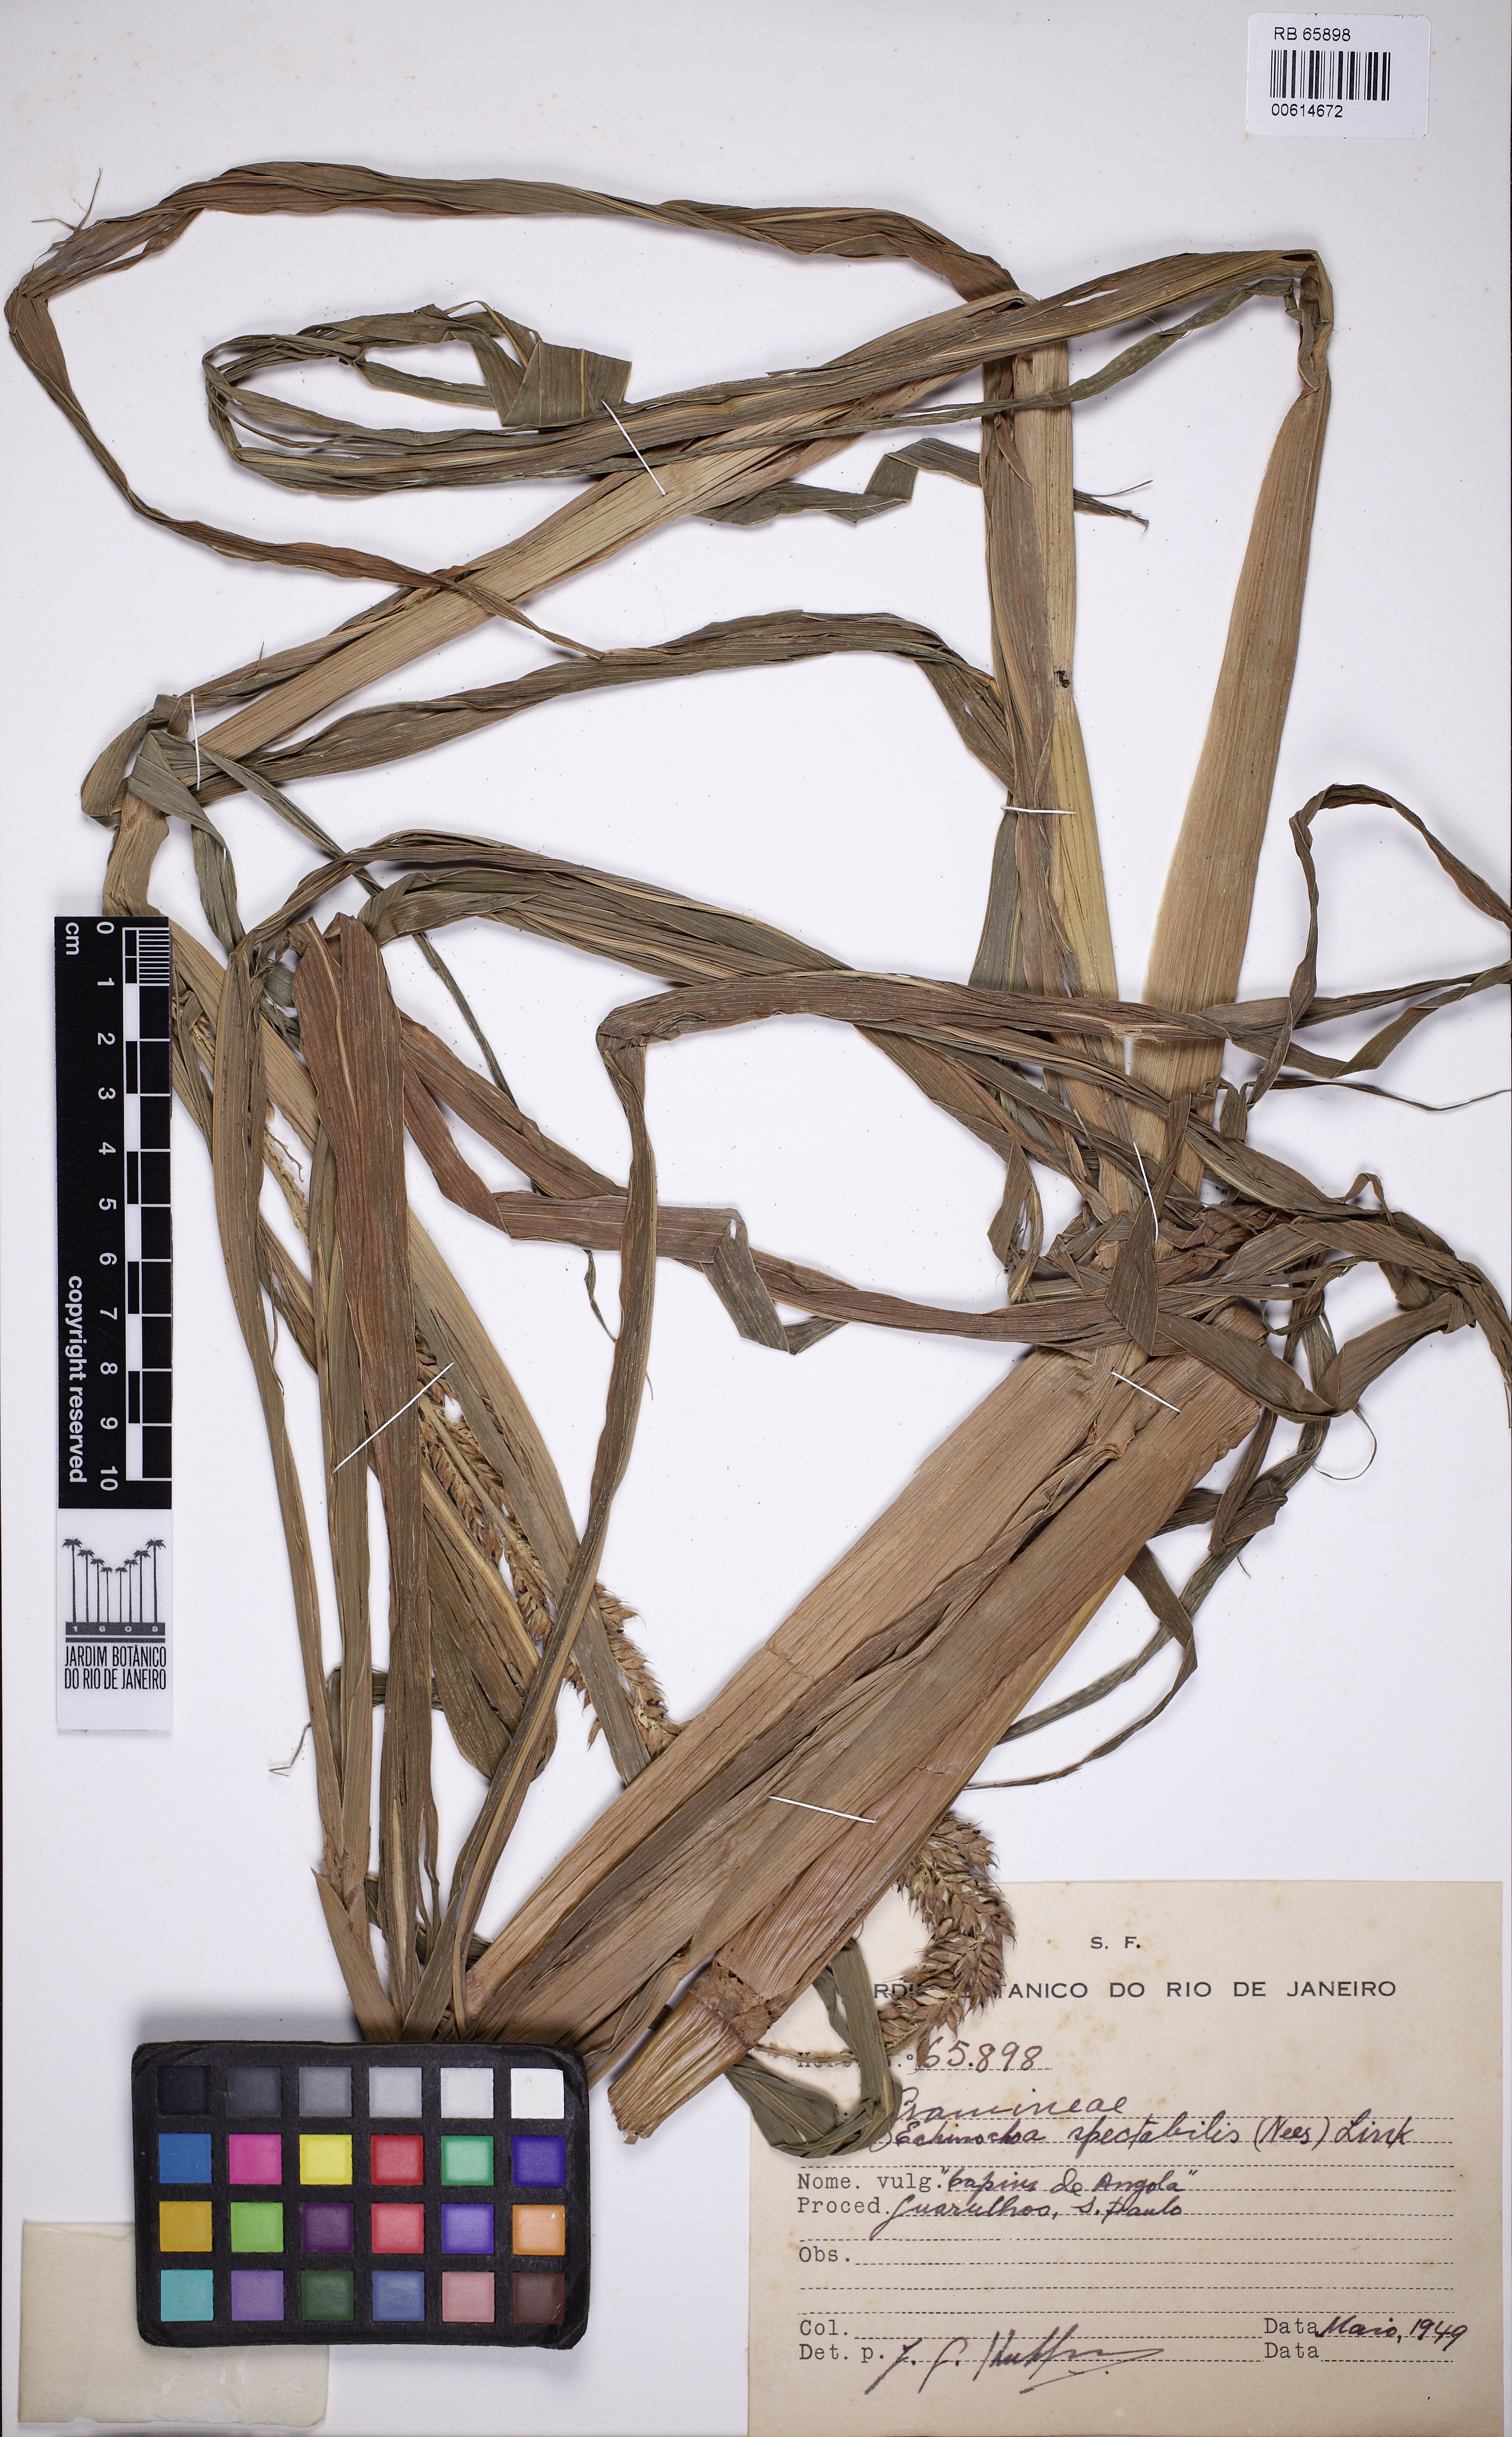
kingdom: Plantae
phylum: Tracheophyta
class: Liliopsida
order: Poales
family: Poaceae
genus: Echinochloa
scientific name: Echinochloa polystachya
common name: Creeping river grass
